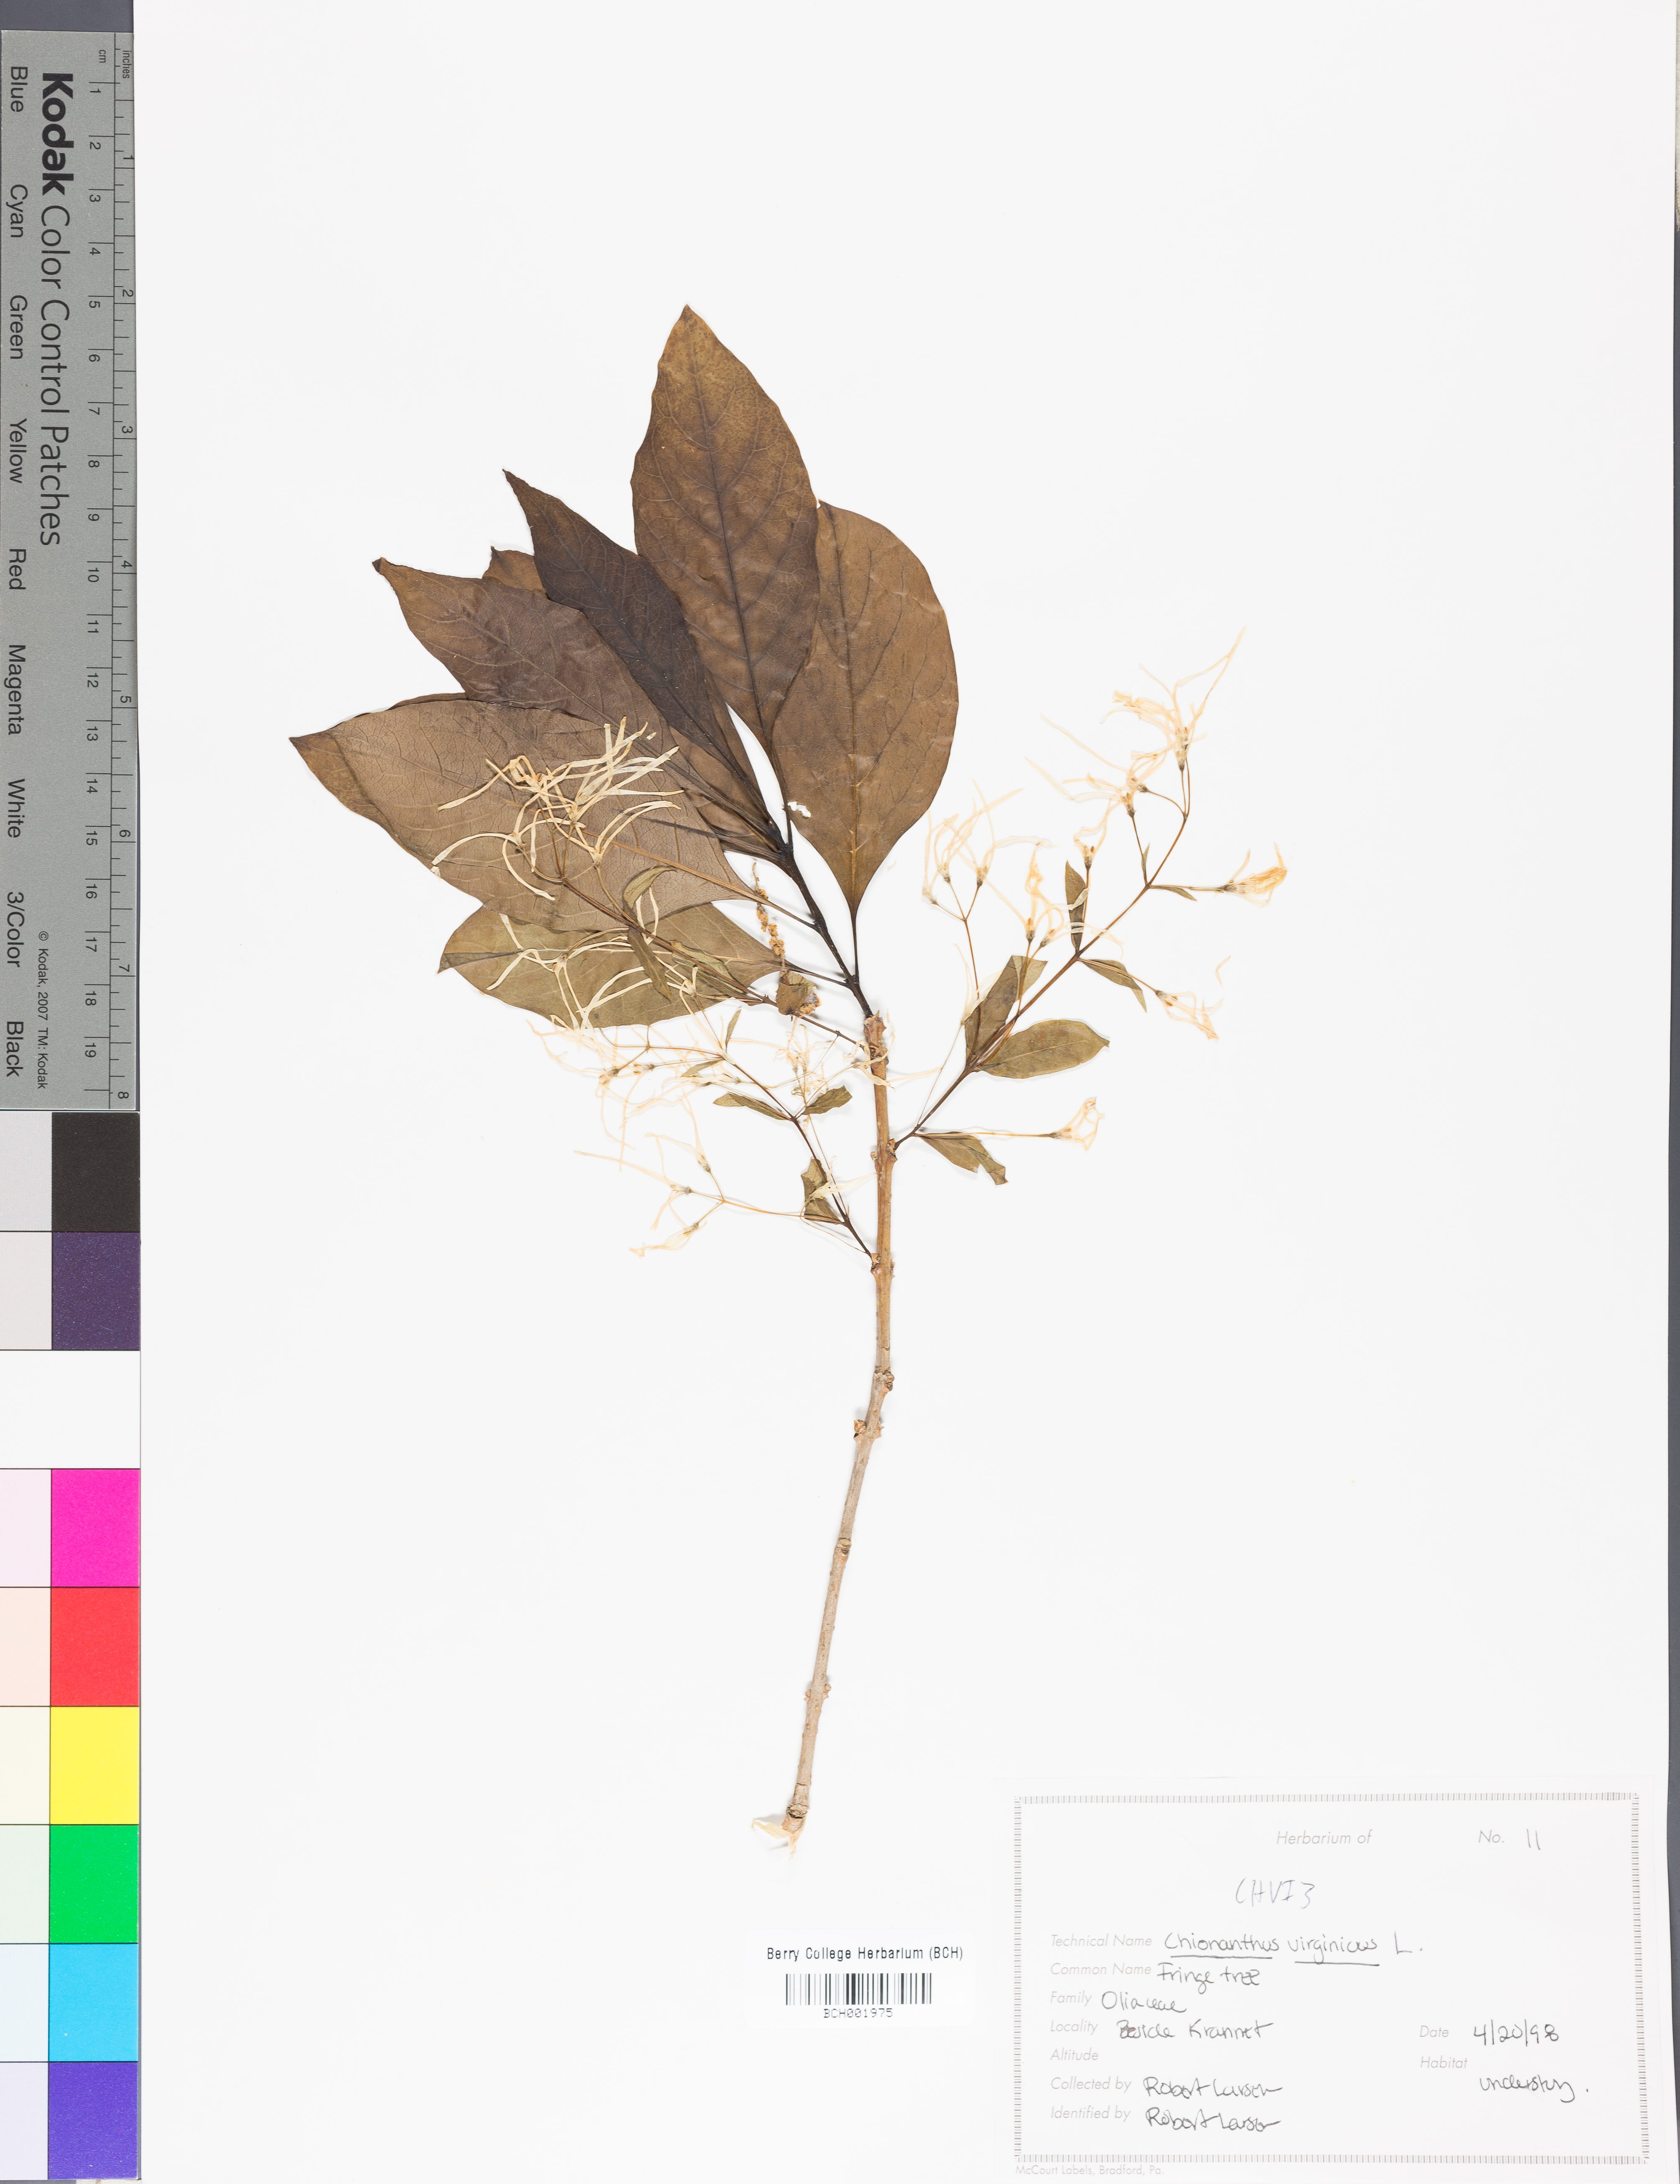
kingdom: Plantae
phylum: Tracheophyta
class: Magnoliopsida
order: Lamiales
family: Oleaceae
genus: Chionanthus
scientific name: Chionanthus virginicus
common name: American fringetree
